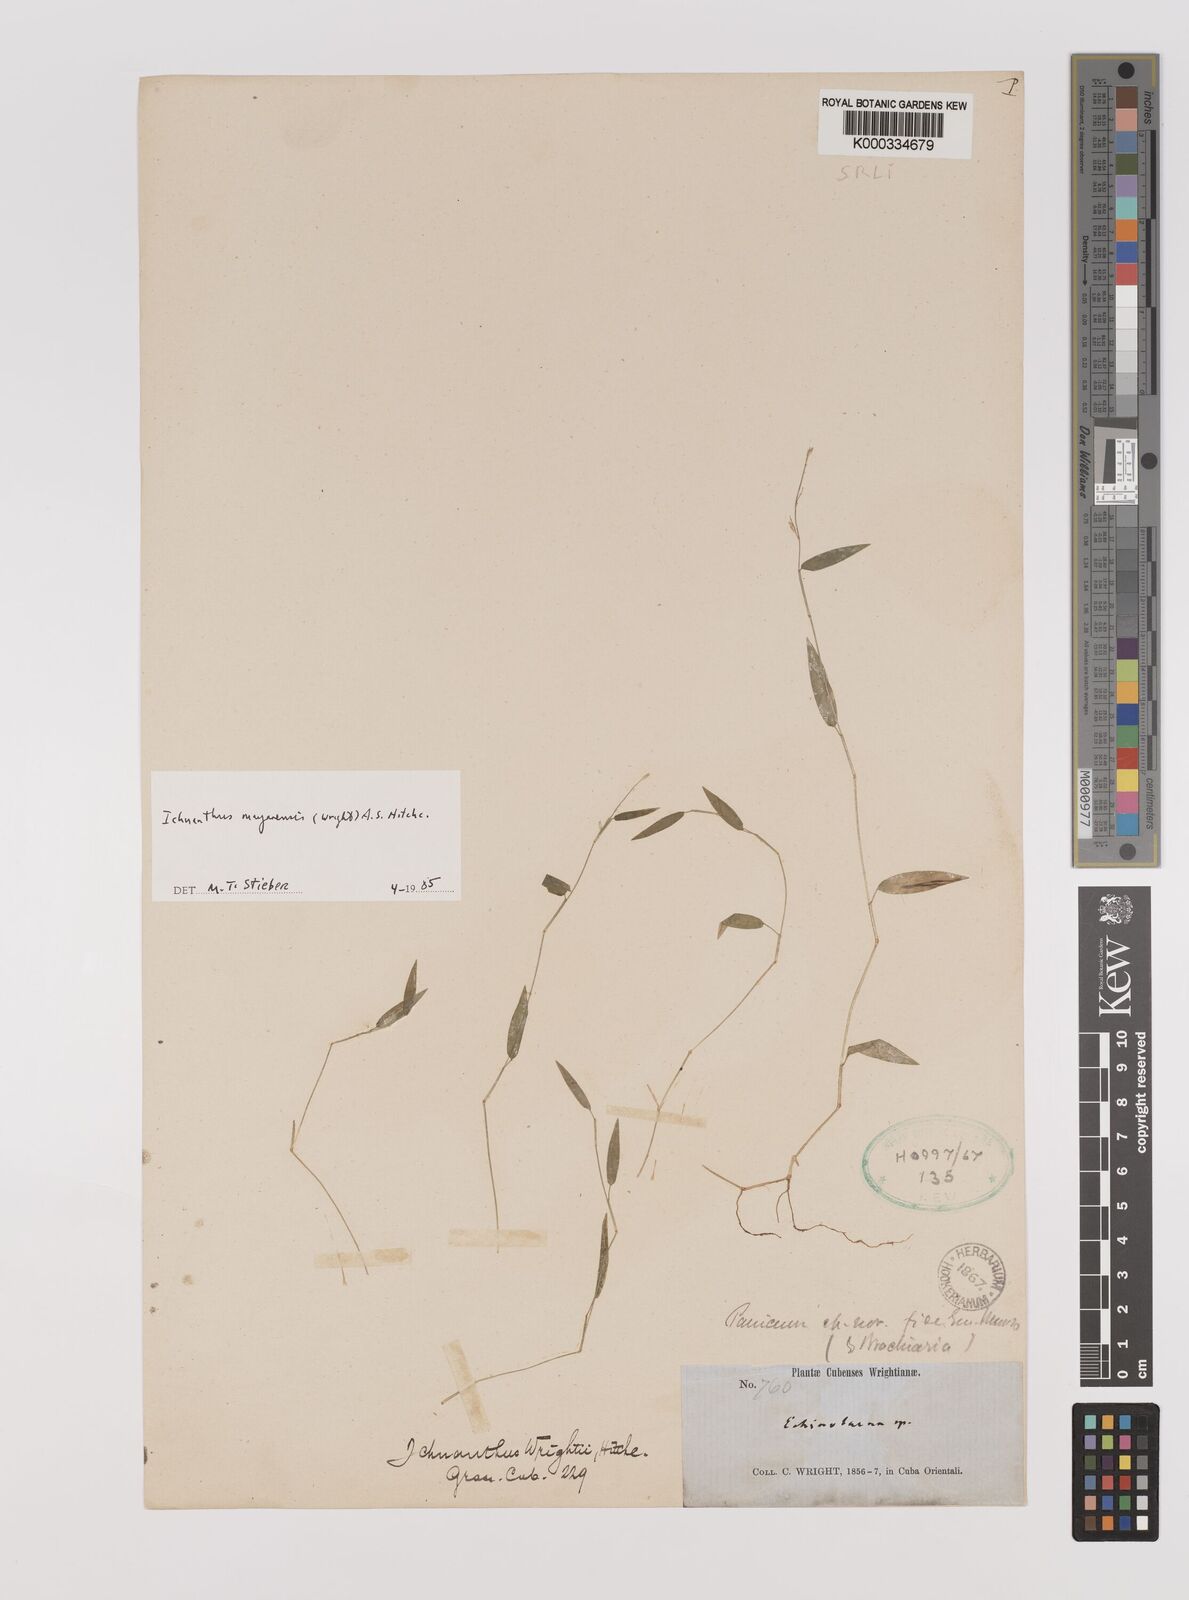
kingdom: Plantae
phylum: Tracheophyta
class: Liliopsida
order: Poales
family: Poaceae
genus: Oedochloa
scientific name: Oedochloa mayarensis
